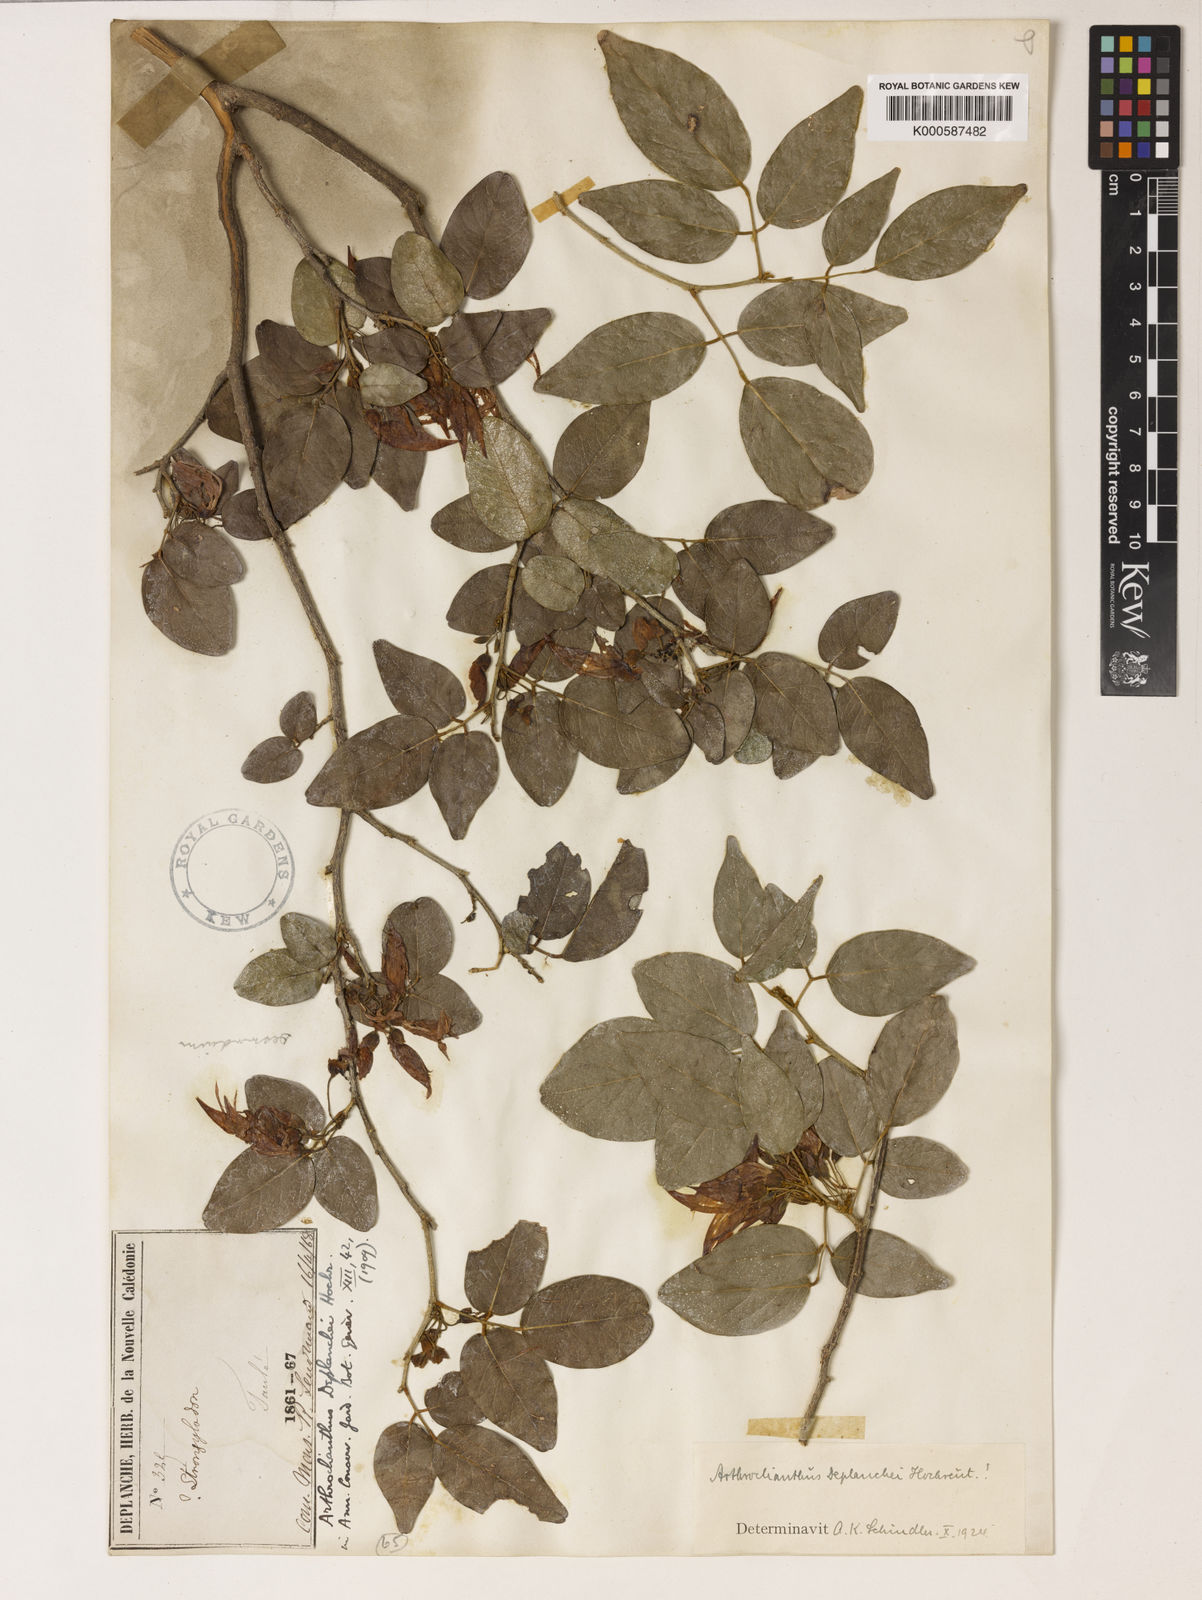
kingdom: Plantae
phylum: Tracheophyta
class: Magnoliopsida
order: Fabales
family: Fabaceae
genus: Arthroclianthus
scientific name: Arthroclianthus deplanchei
